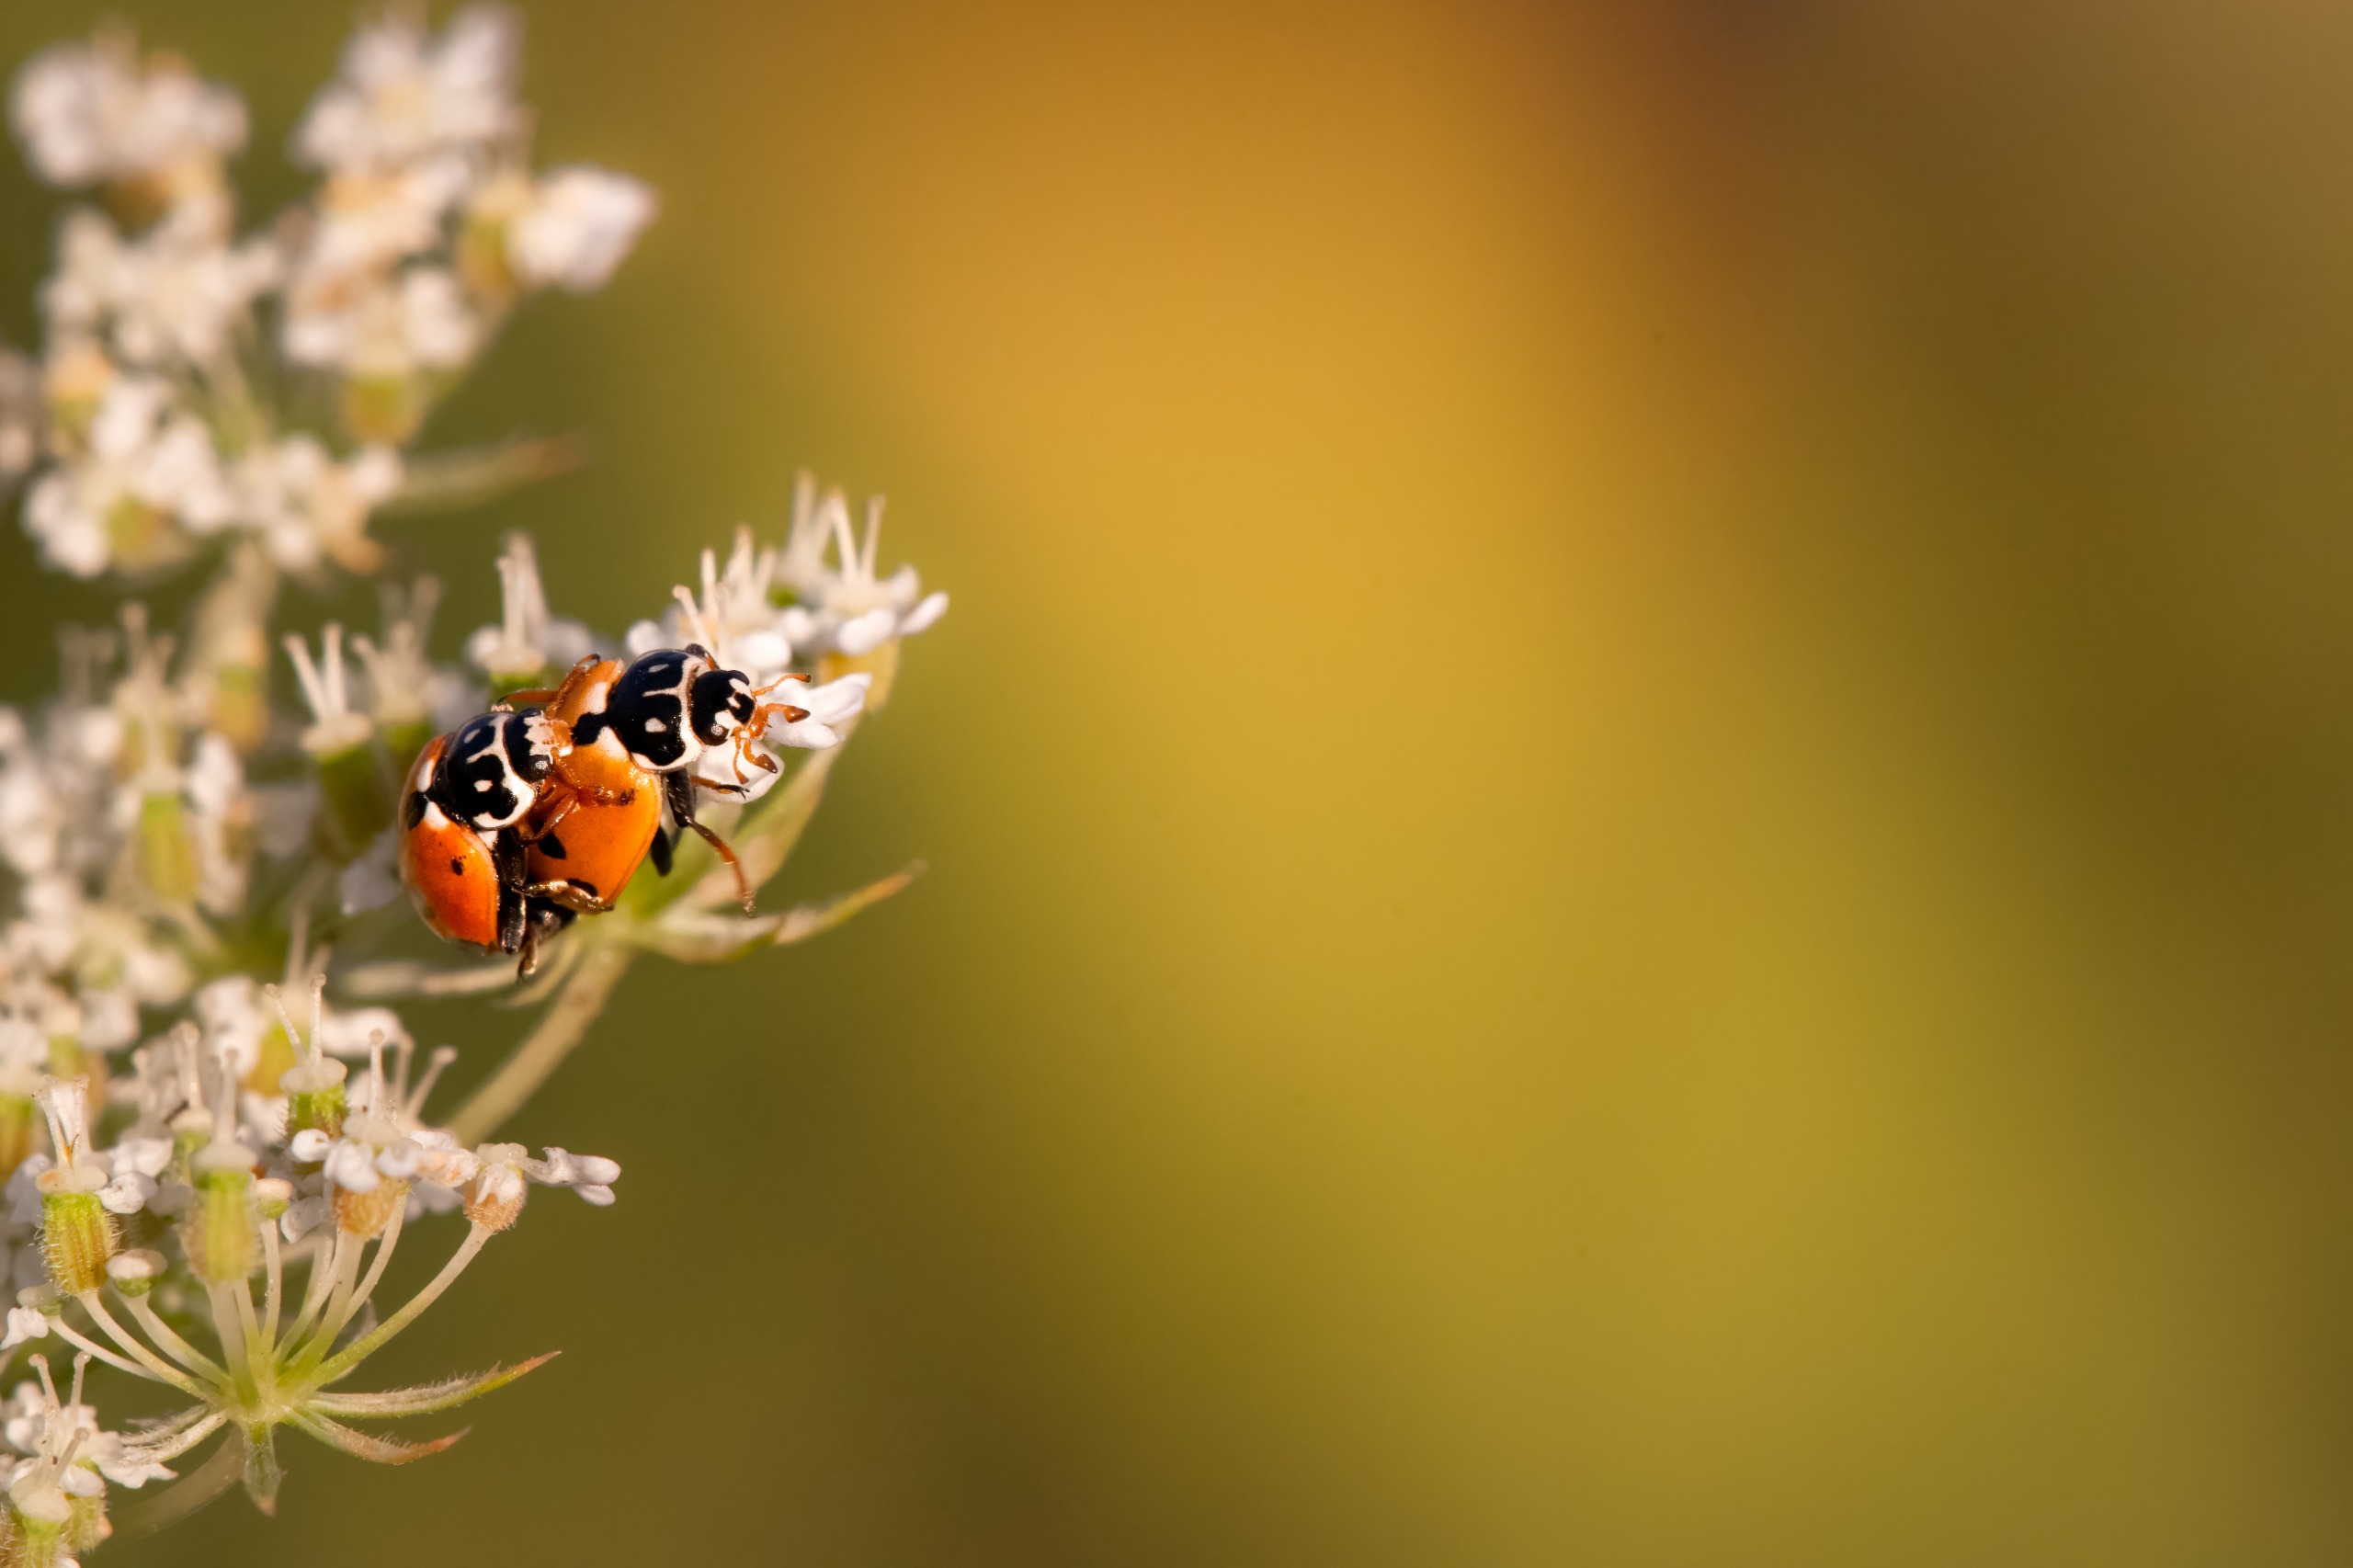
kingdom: Animalia
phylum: Arthropoda
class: Insecta
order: Coleoptera
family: Coccinellidae
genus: Hippodamia
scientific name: Hippodamia variegata
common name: Adonis' mariehøne
